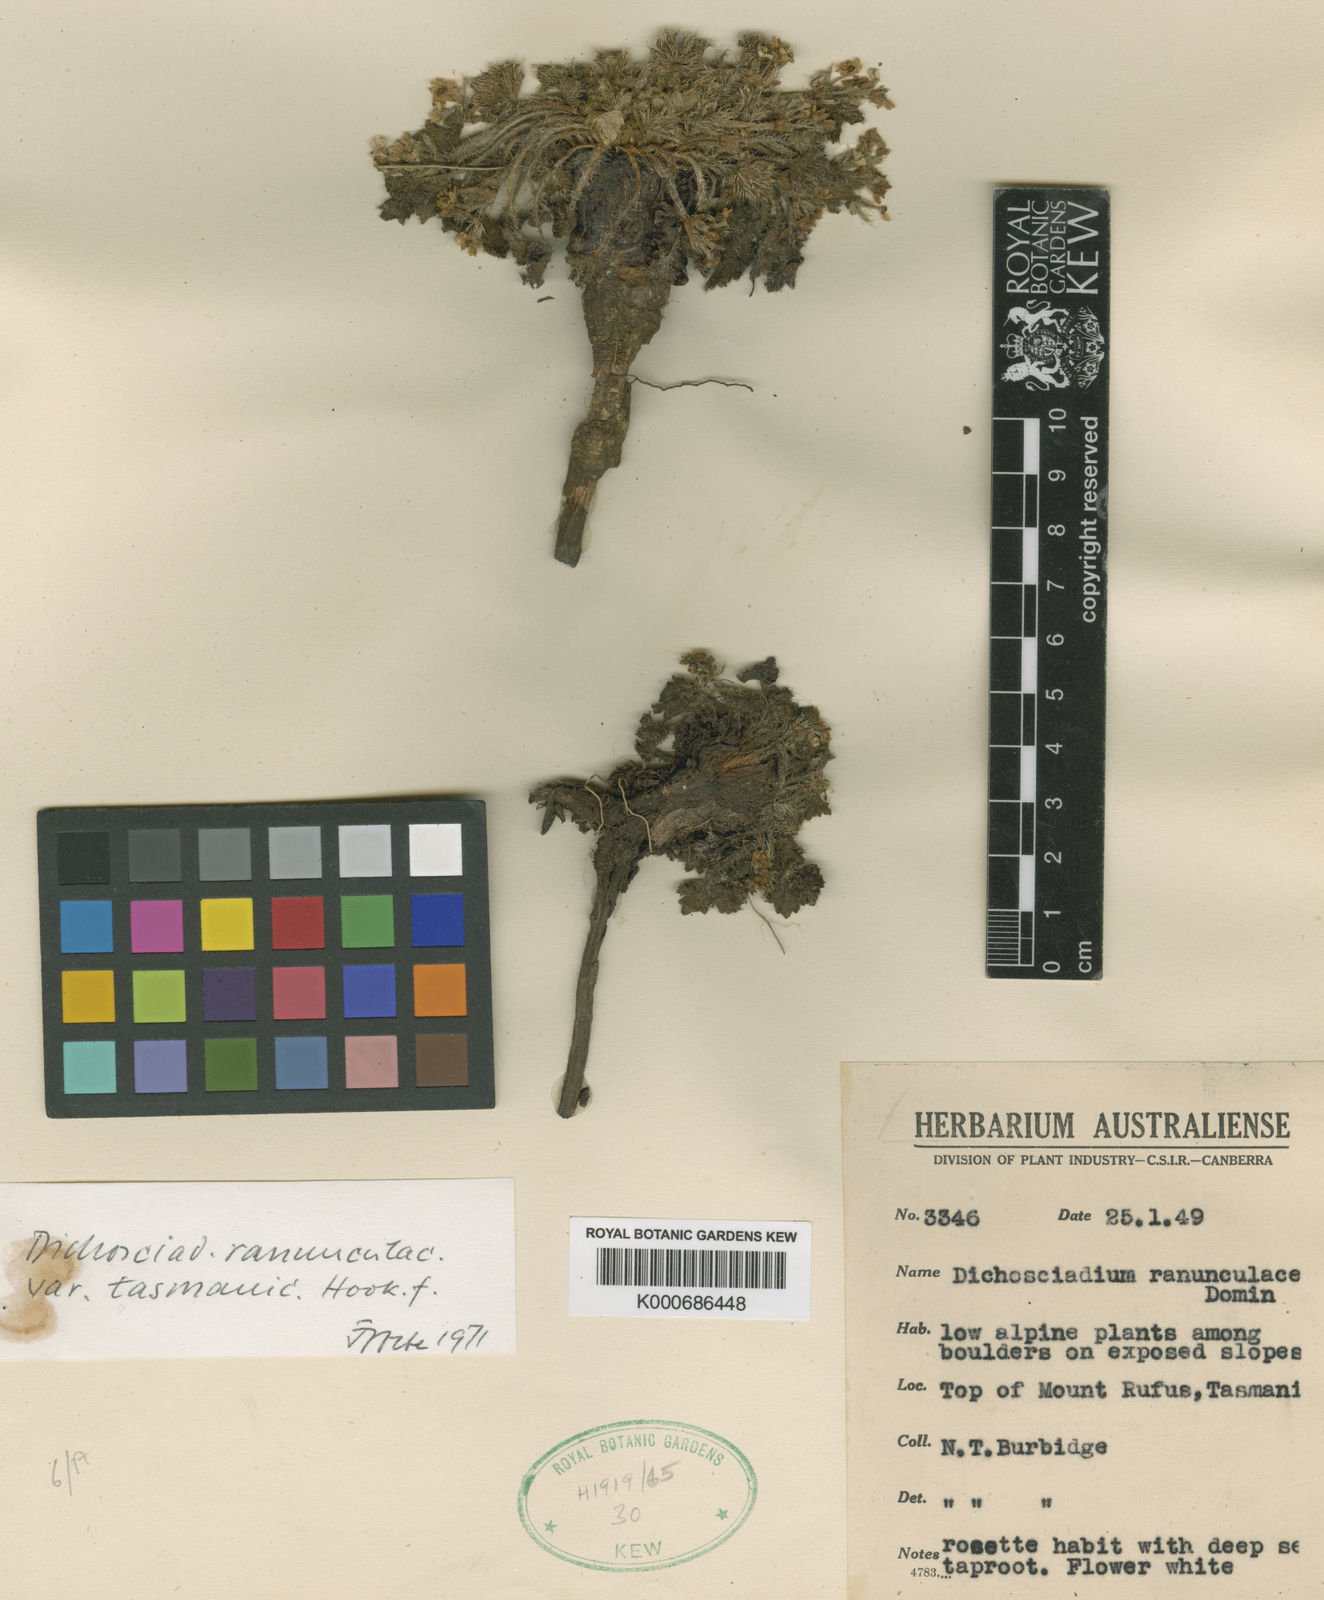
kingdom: Plantae
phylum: Tracheophyta
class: Magnoliopsida
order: Apiales
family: Apiaceae
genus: Dichosciadium
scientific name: Dichosciadium ranunculaceum
